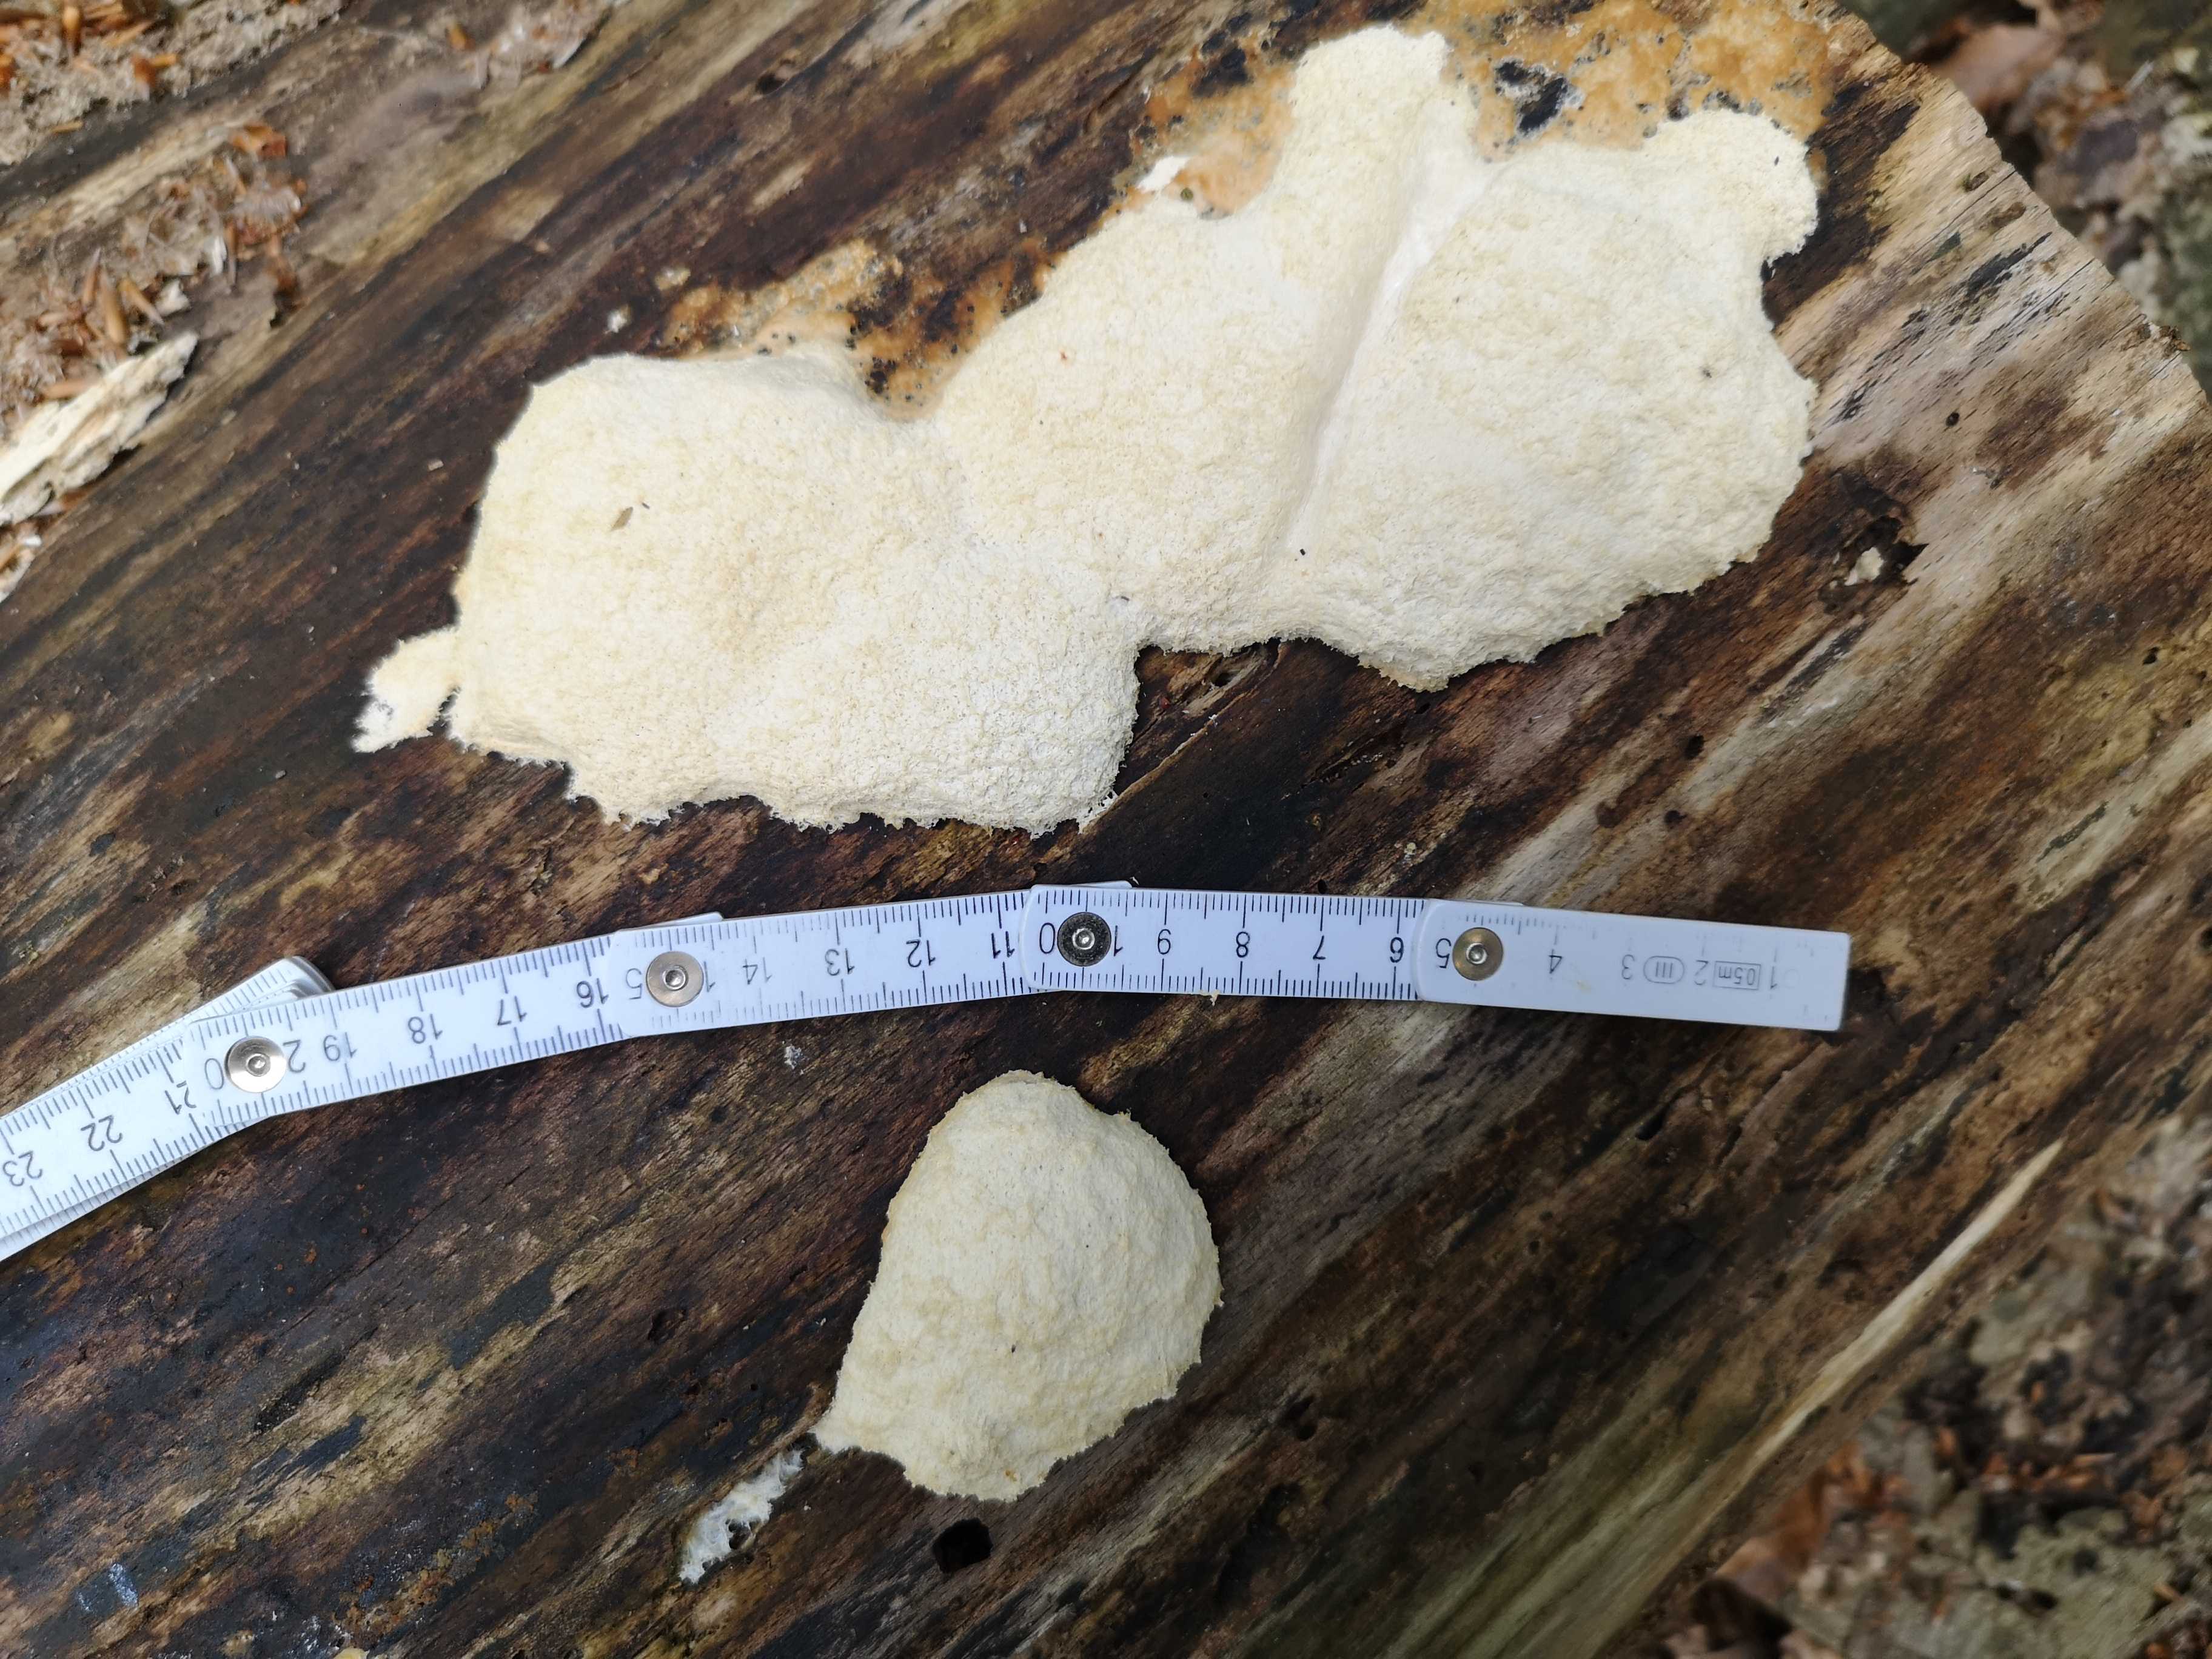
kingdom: Protozoa
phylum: Mycetozoa
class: Myxomycetes
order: Physarales
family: Physaraceae
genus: Fuligo
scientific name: Fuligo septica
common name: gul troldsmør
